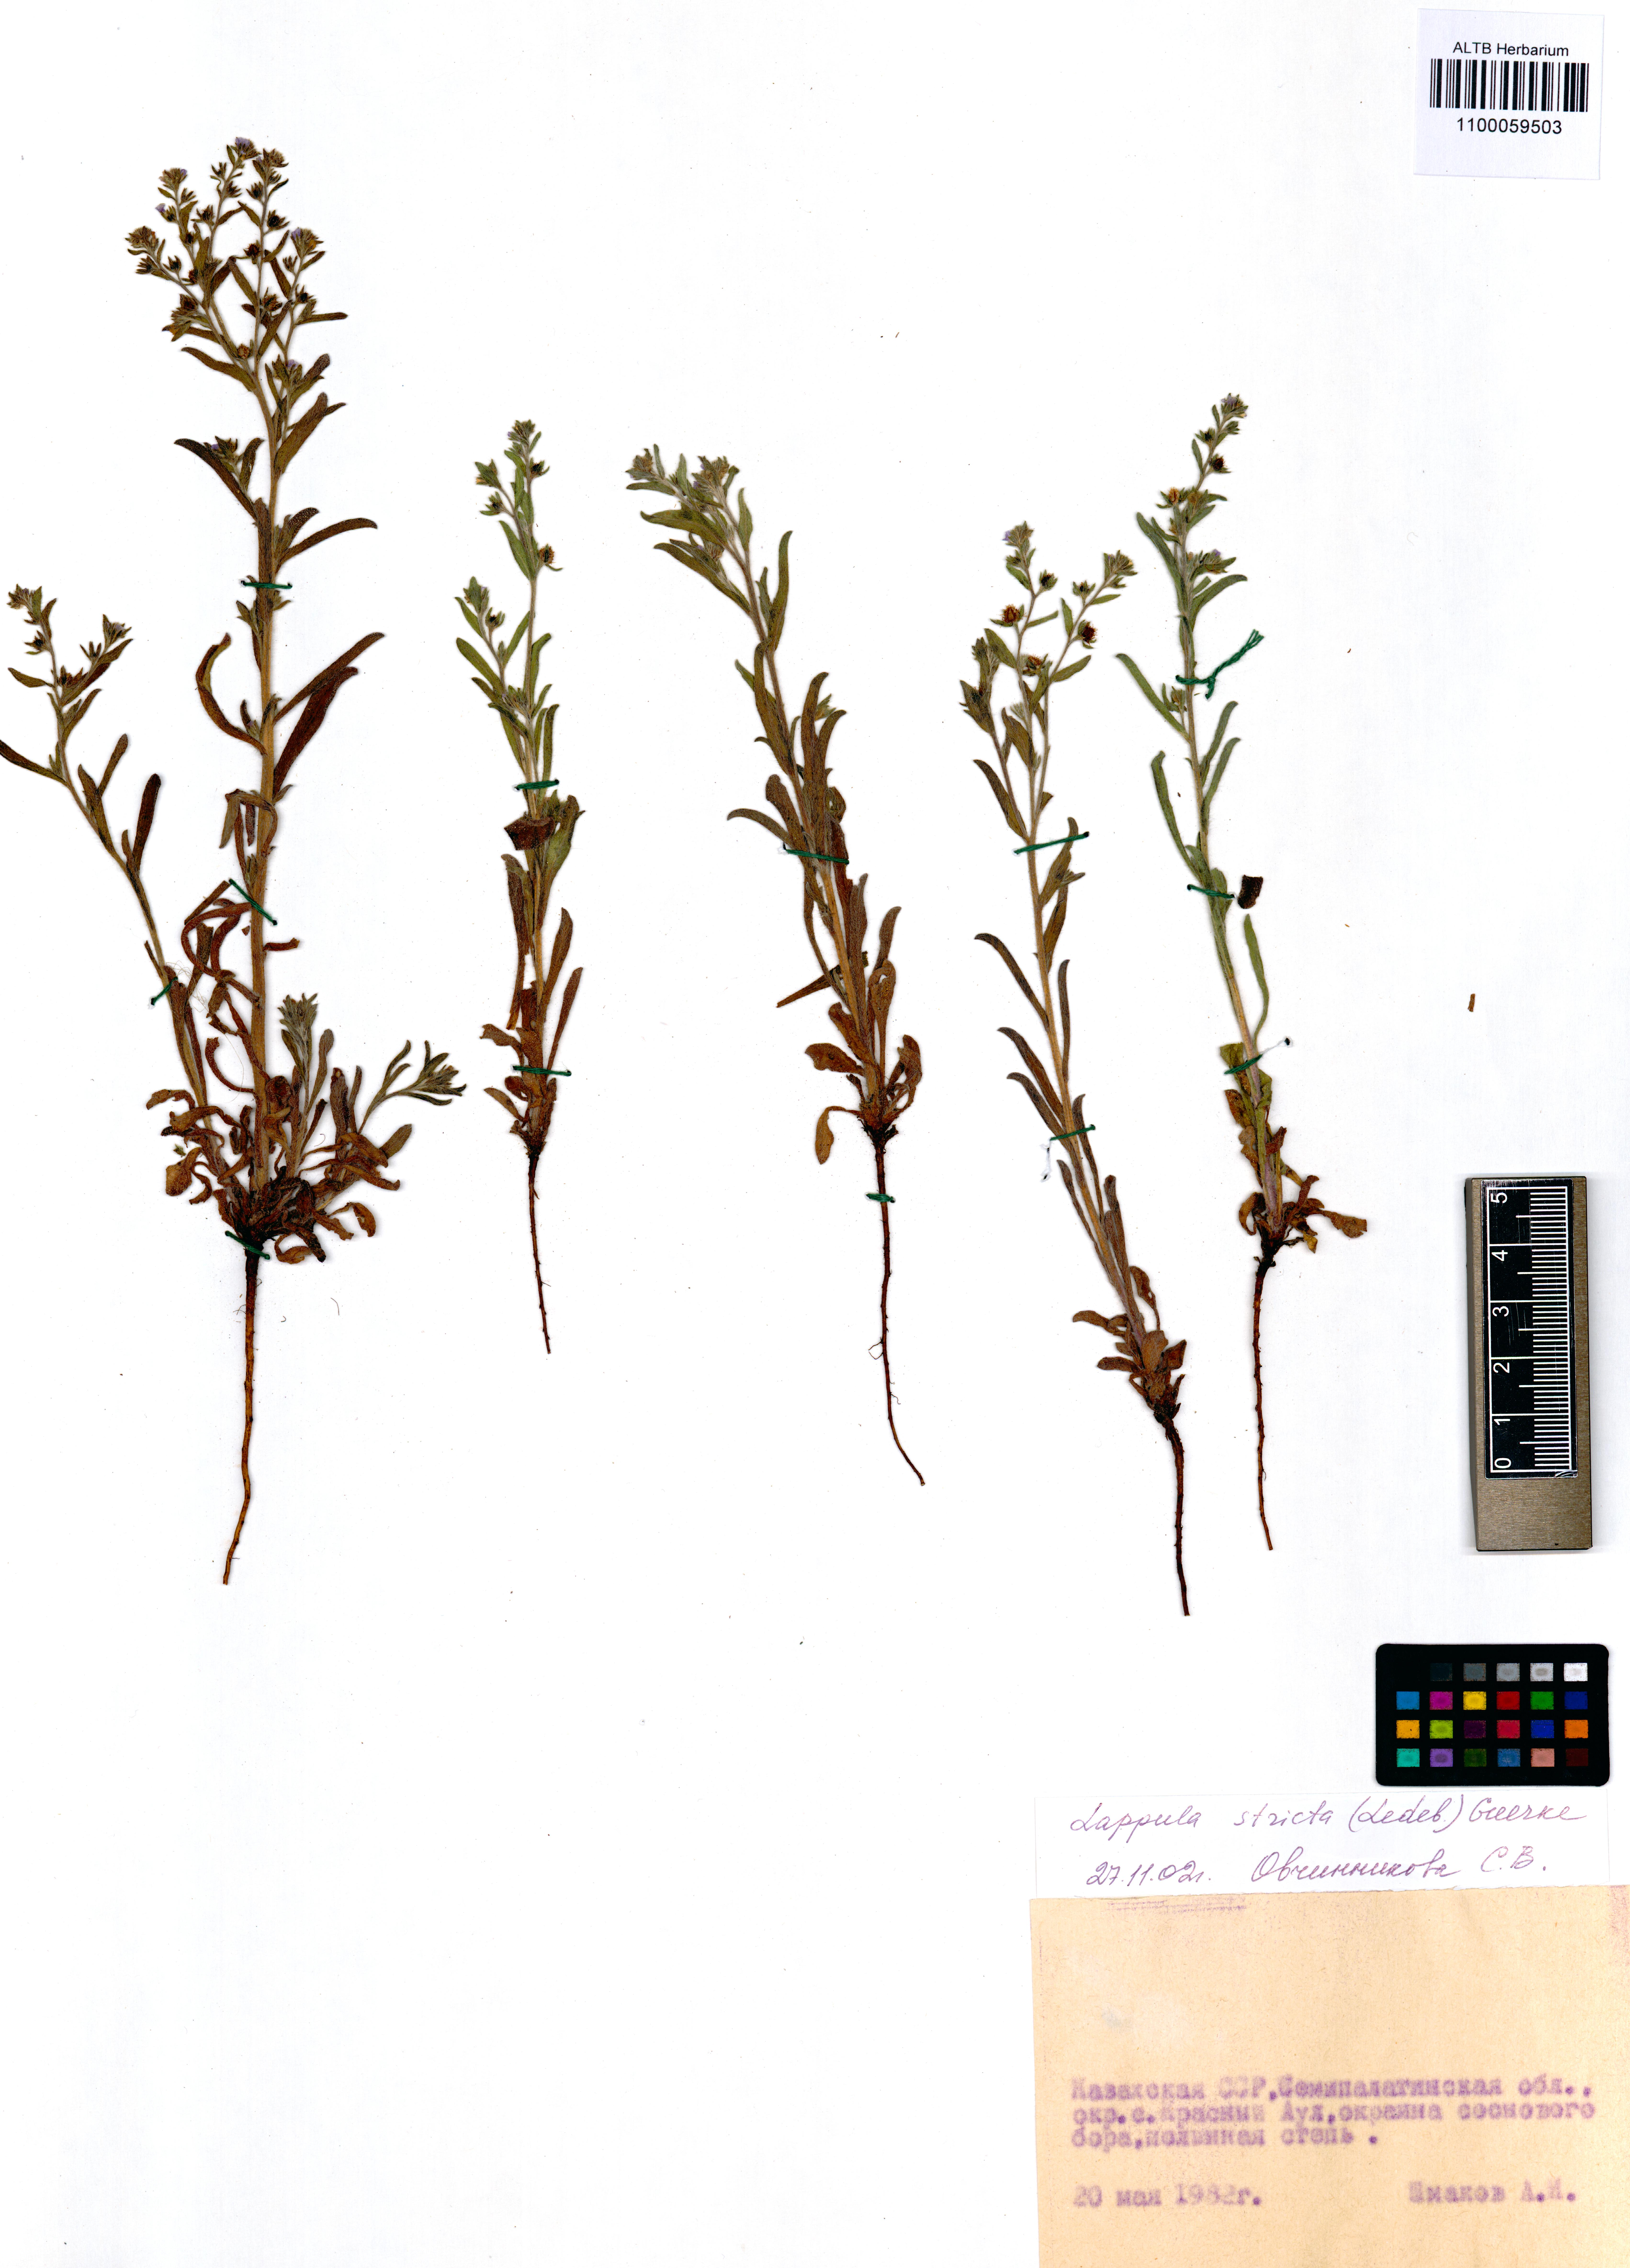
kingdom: Plantae
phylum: Tracheophyta
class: Magnoliopsida
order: Boraginales
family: Boraginaceae
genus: Lappula
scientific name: Lappula stricta
